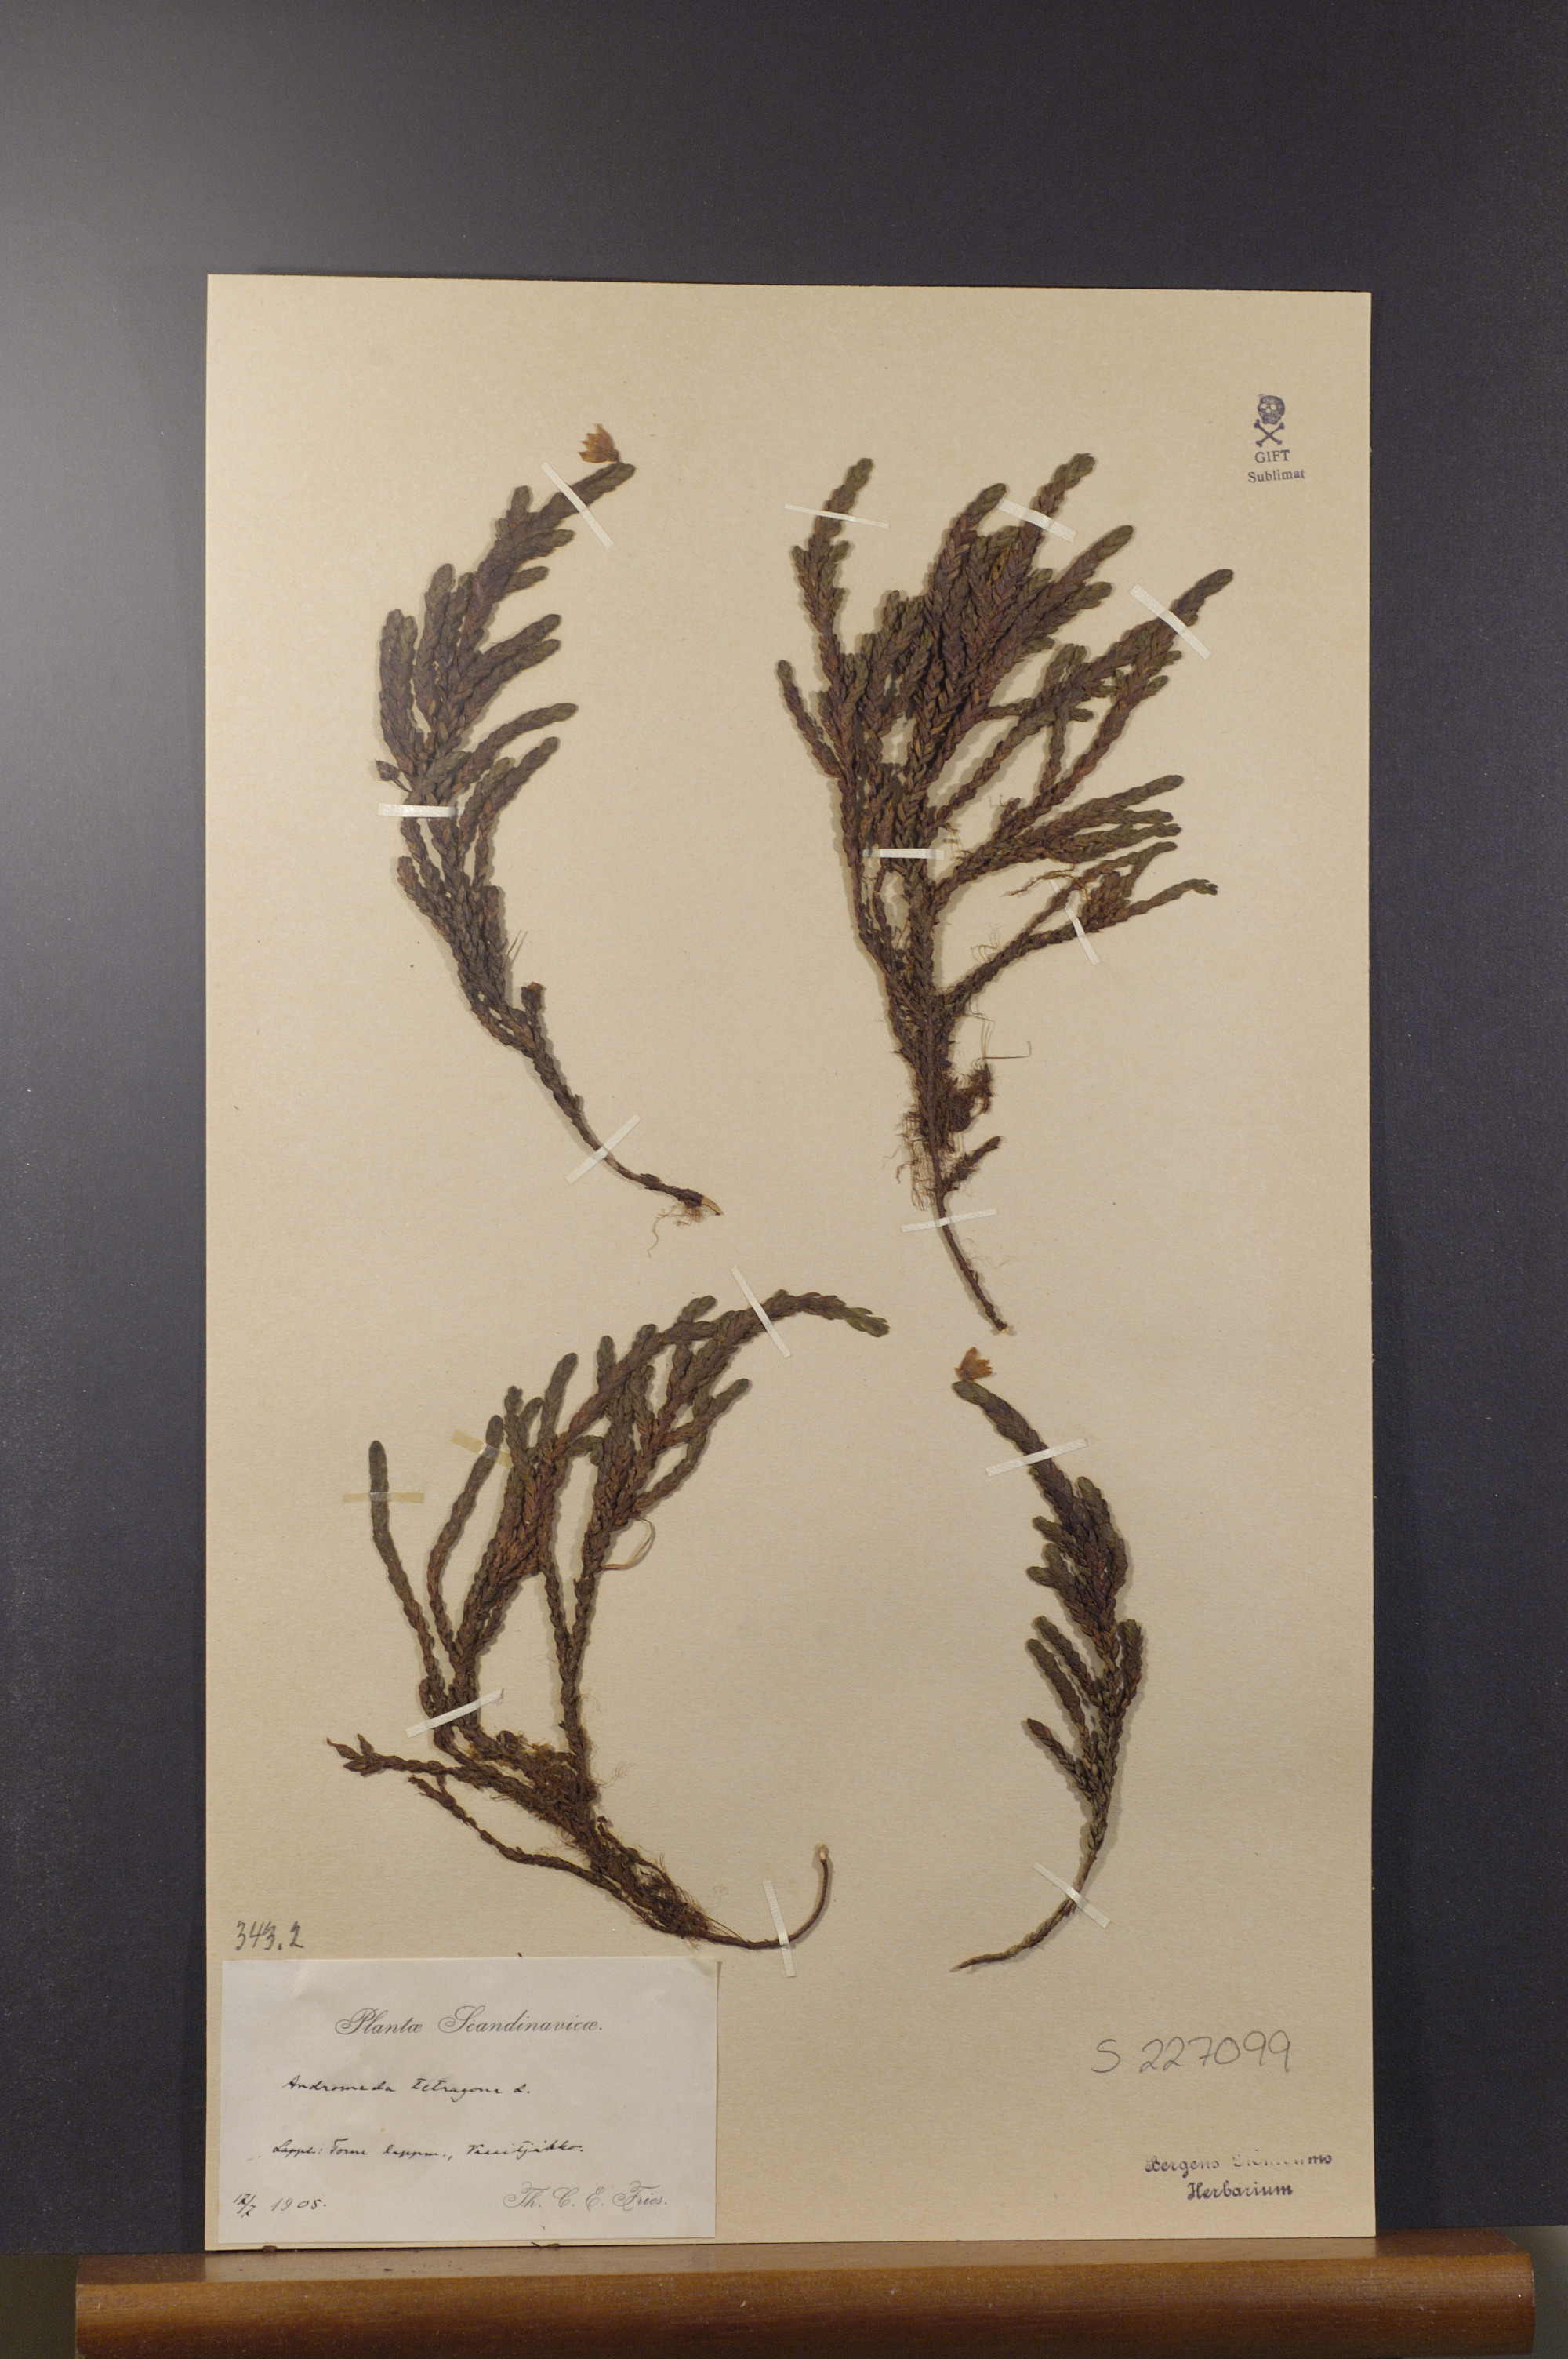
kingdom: Plantae
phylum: Tracheophyta
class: Magnoliopsida
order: Ericales
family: Ericaceae
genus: Cassiope
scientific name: Cassiope tetragona
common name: Arctic bell heather
